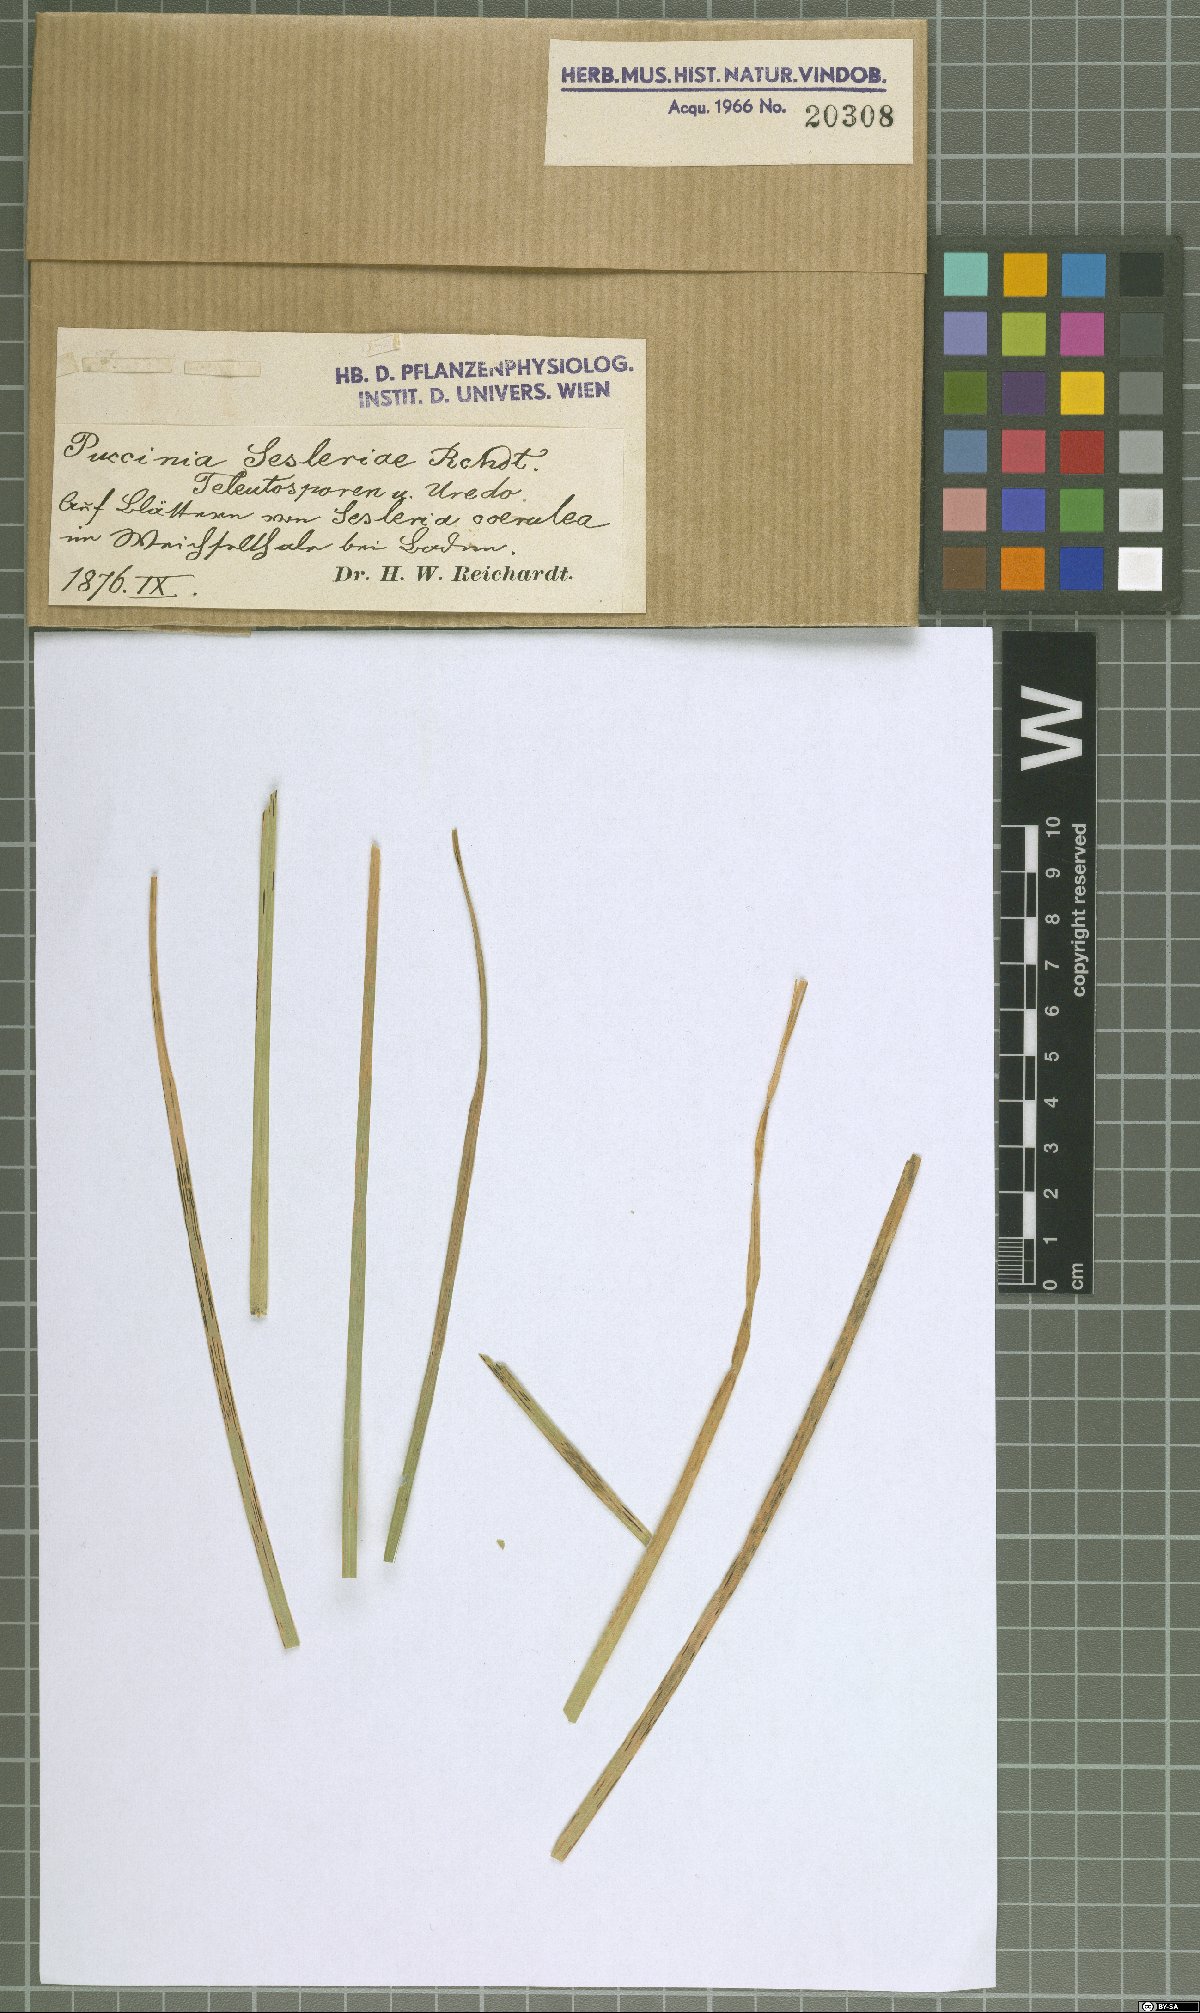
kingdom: Fungi
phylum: Basidiomycota
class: Pucciniomycetes
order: Pucciniales
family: Pucciniaceae
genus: Puccinia
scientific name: Puccinia
